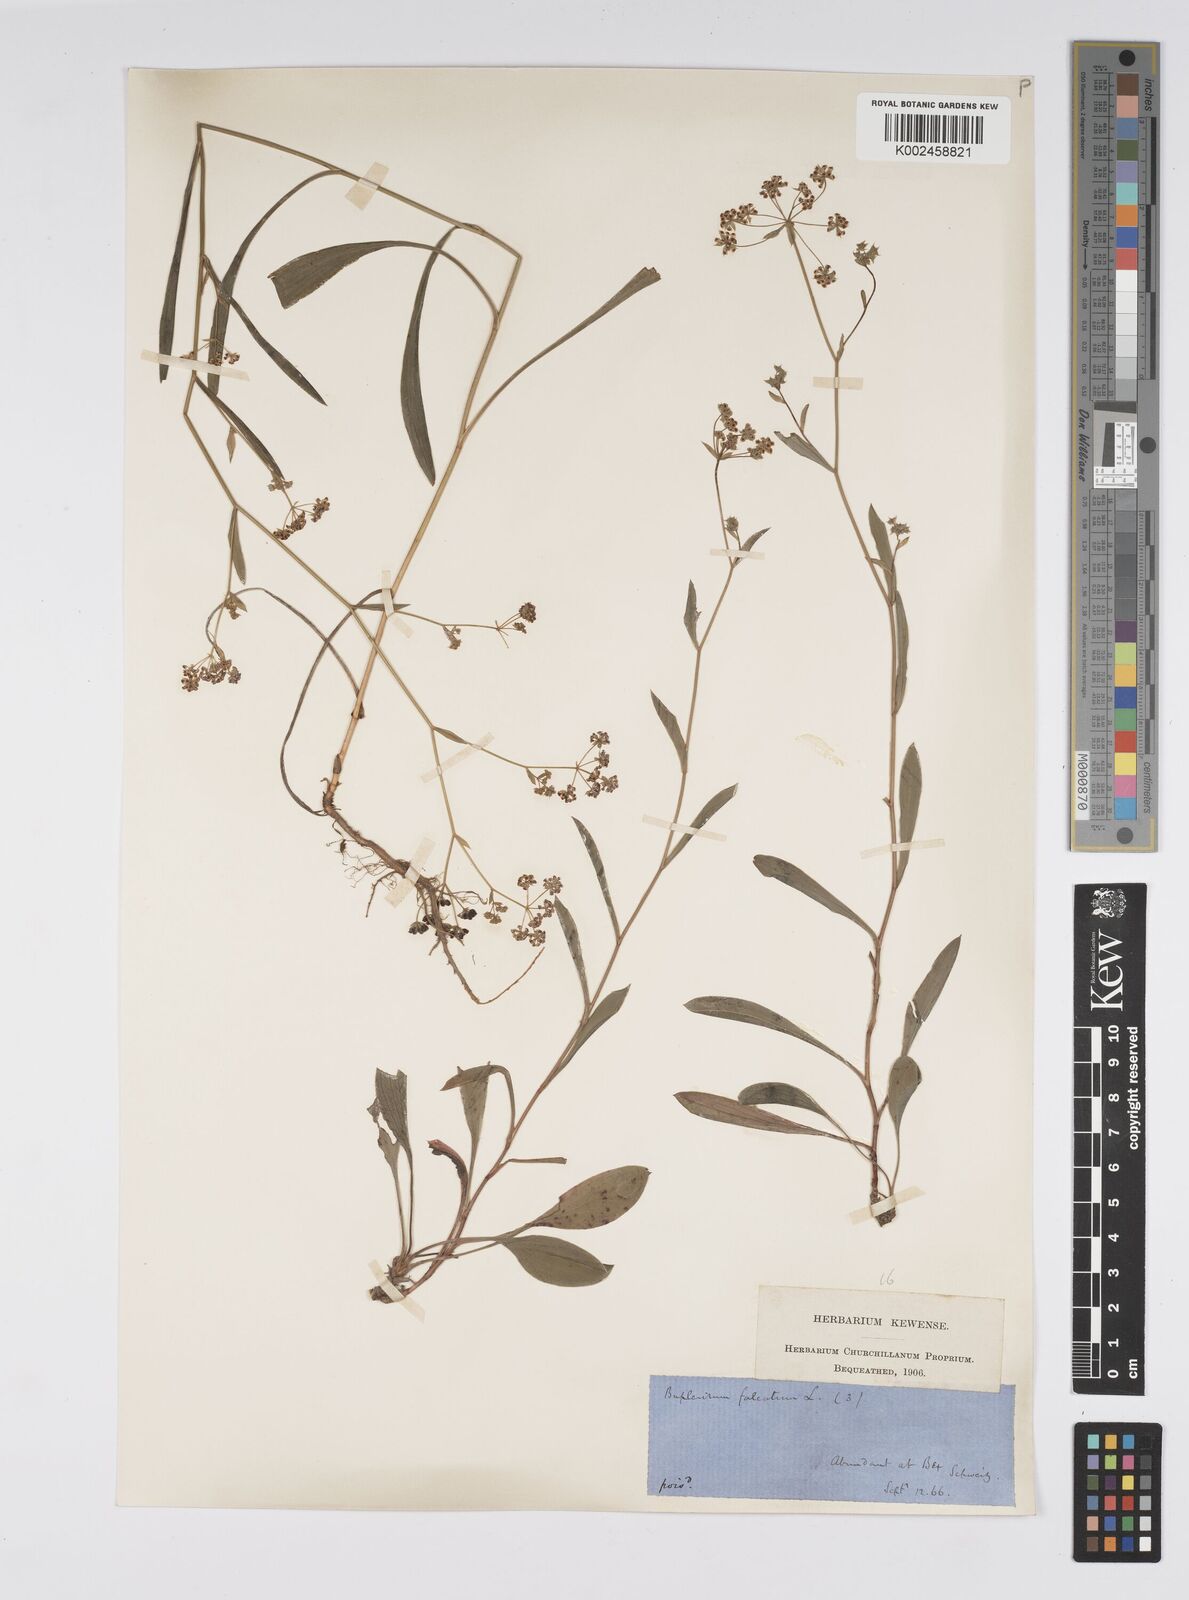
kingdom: Plantae
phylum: Tracheophyta
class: Magnoliopsida
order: Apiales
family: Apiaceae
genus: Bupleurum
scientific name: Bupleurum falcatum
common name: Sickle-leaved hare's-ear
